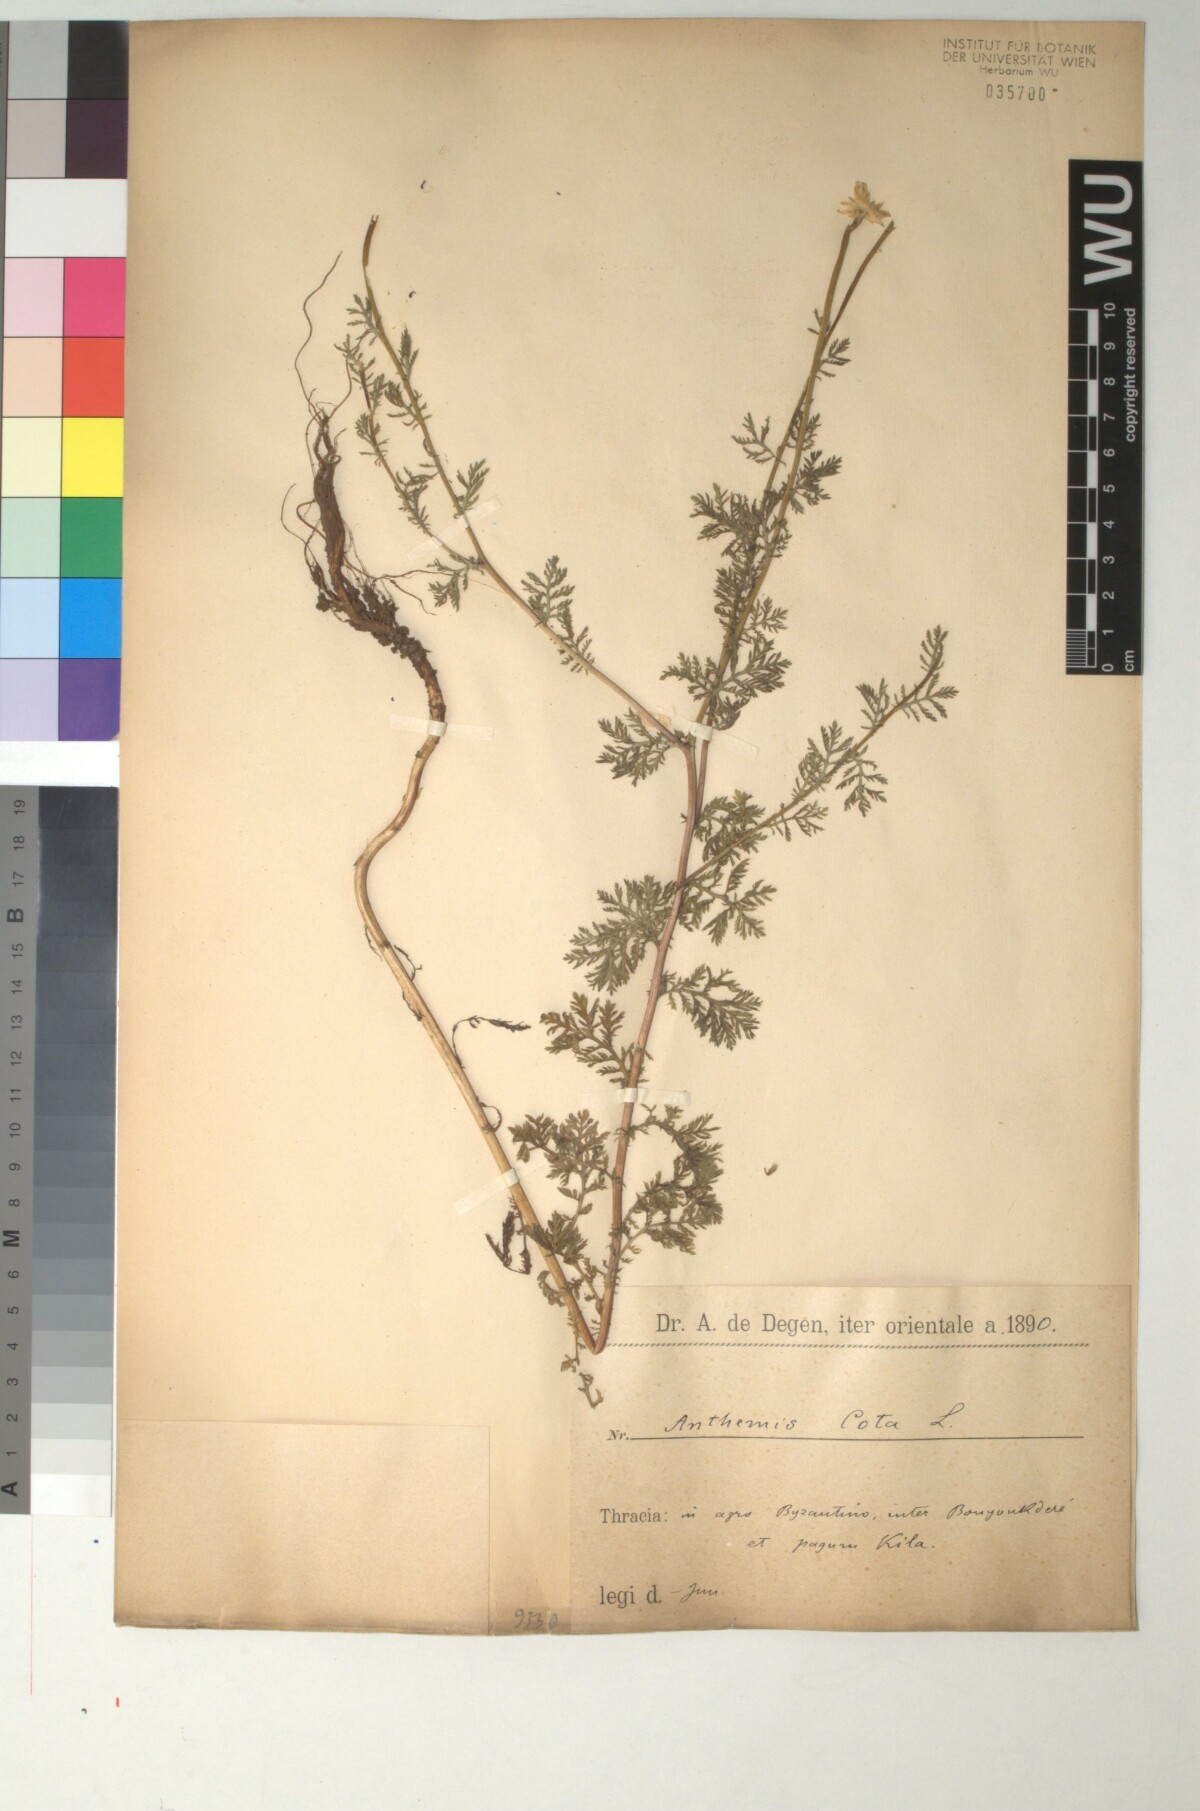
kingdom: Plantae
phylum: Tracheophyta
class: Magnoliopsida
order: Asterales
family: Asteraceae
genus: Cota
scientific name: Cota altissima
